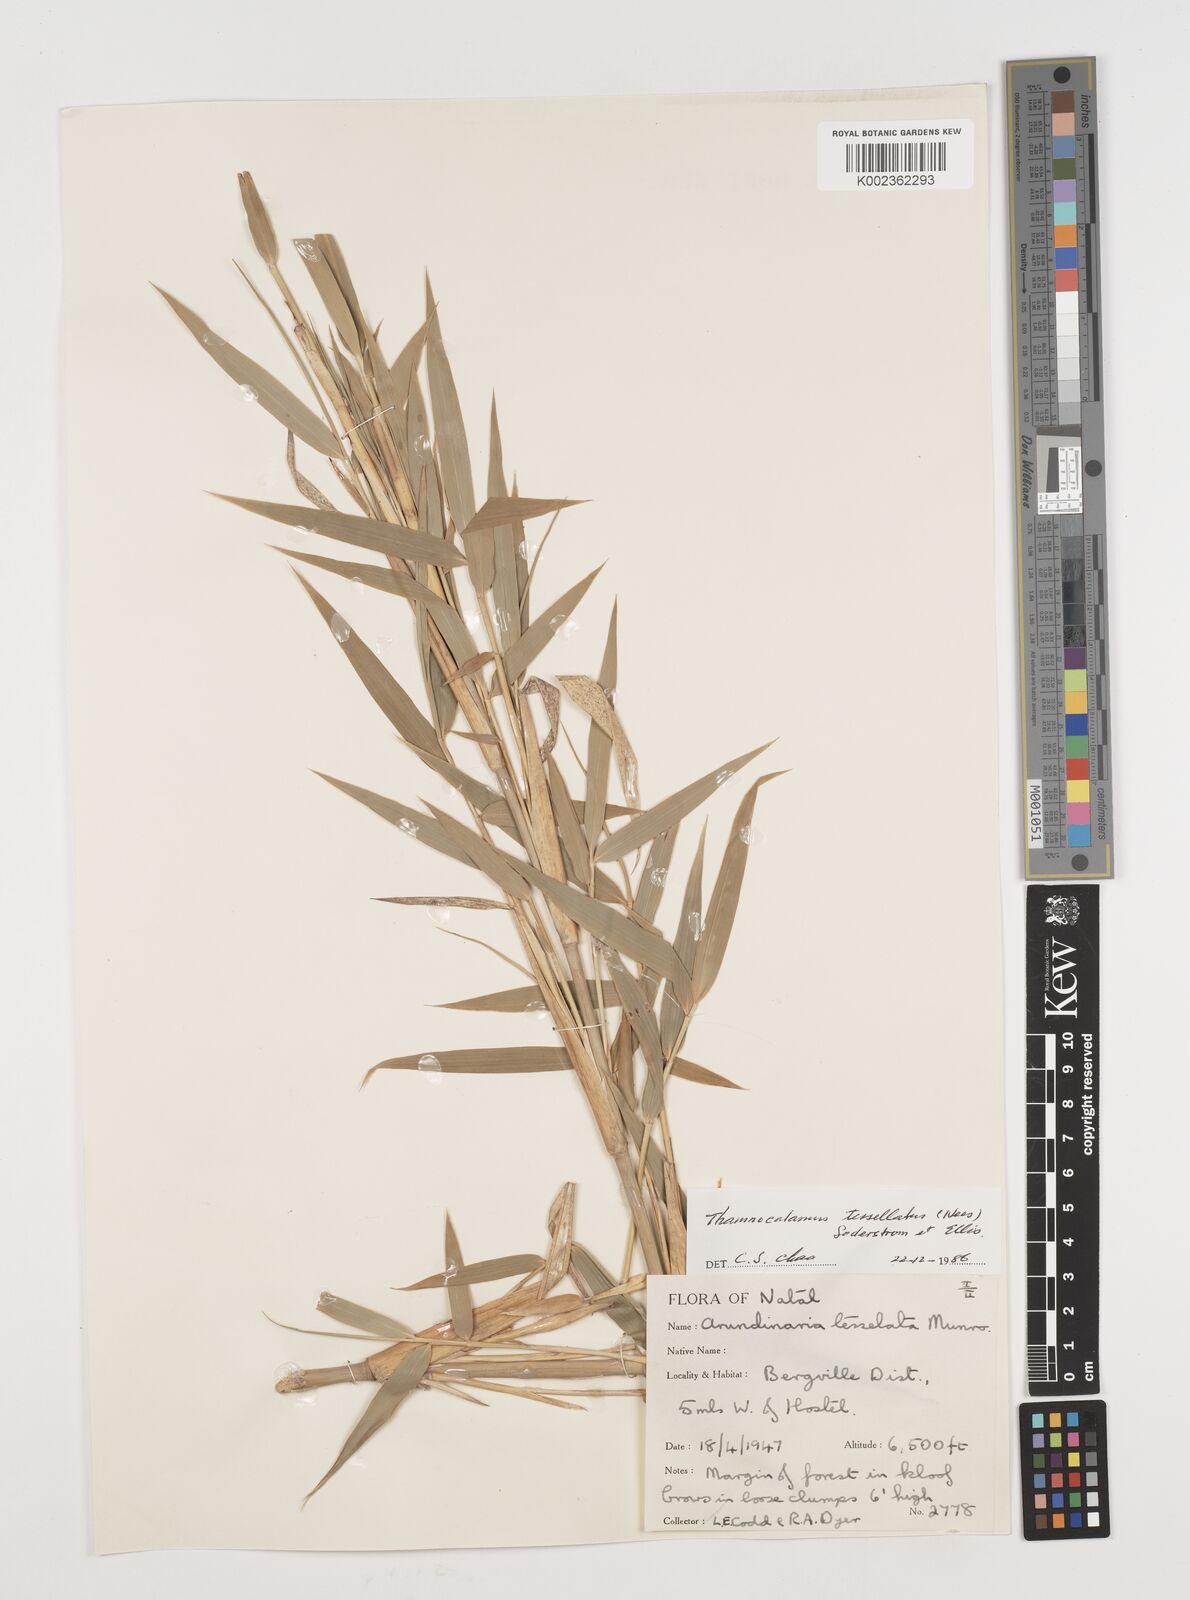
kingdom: Plantae
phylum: Tracheophyta
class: Liliopsida
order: Poales
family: Poaceae
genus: Bergbambos
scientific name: Bergbambos tessellata
